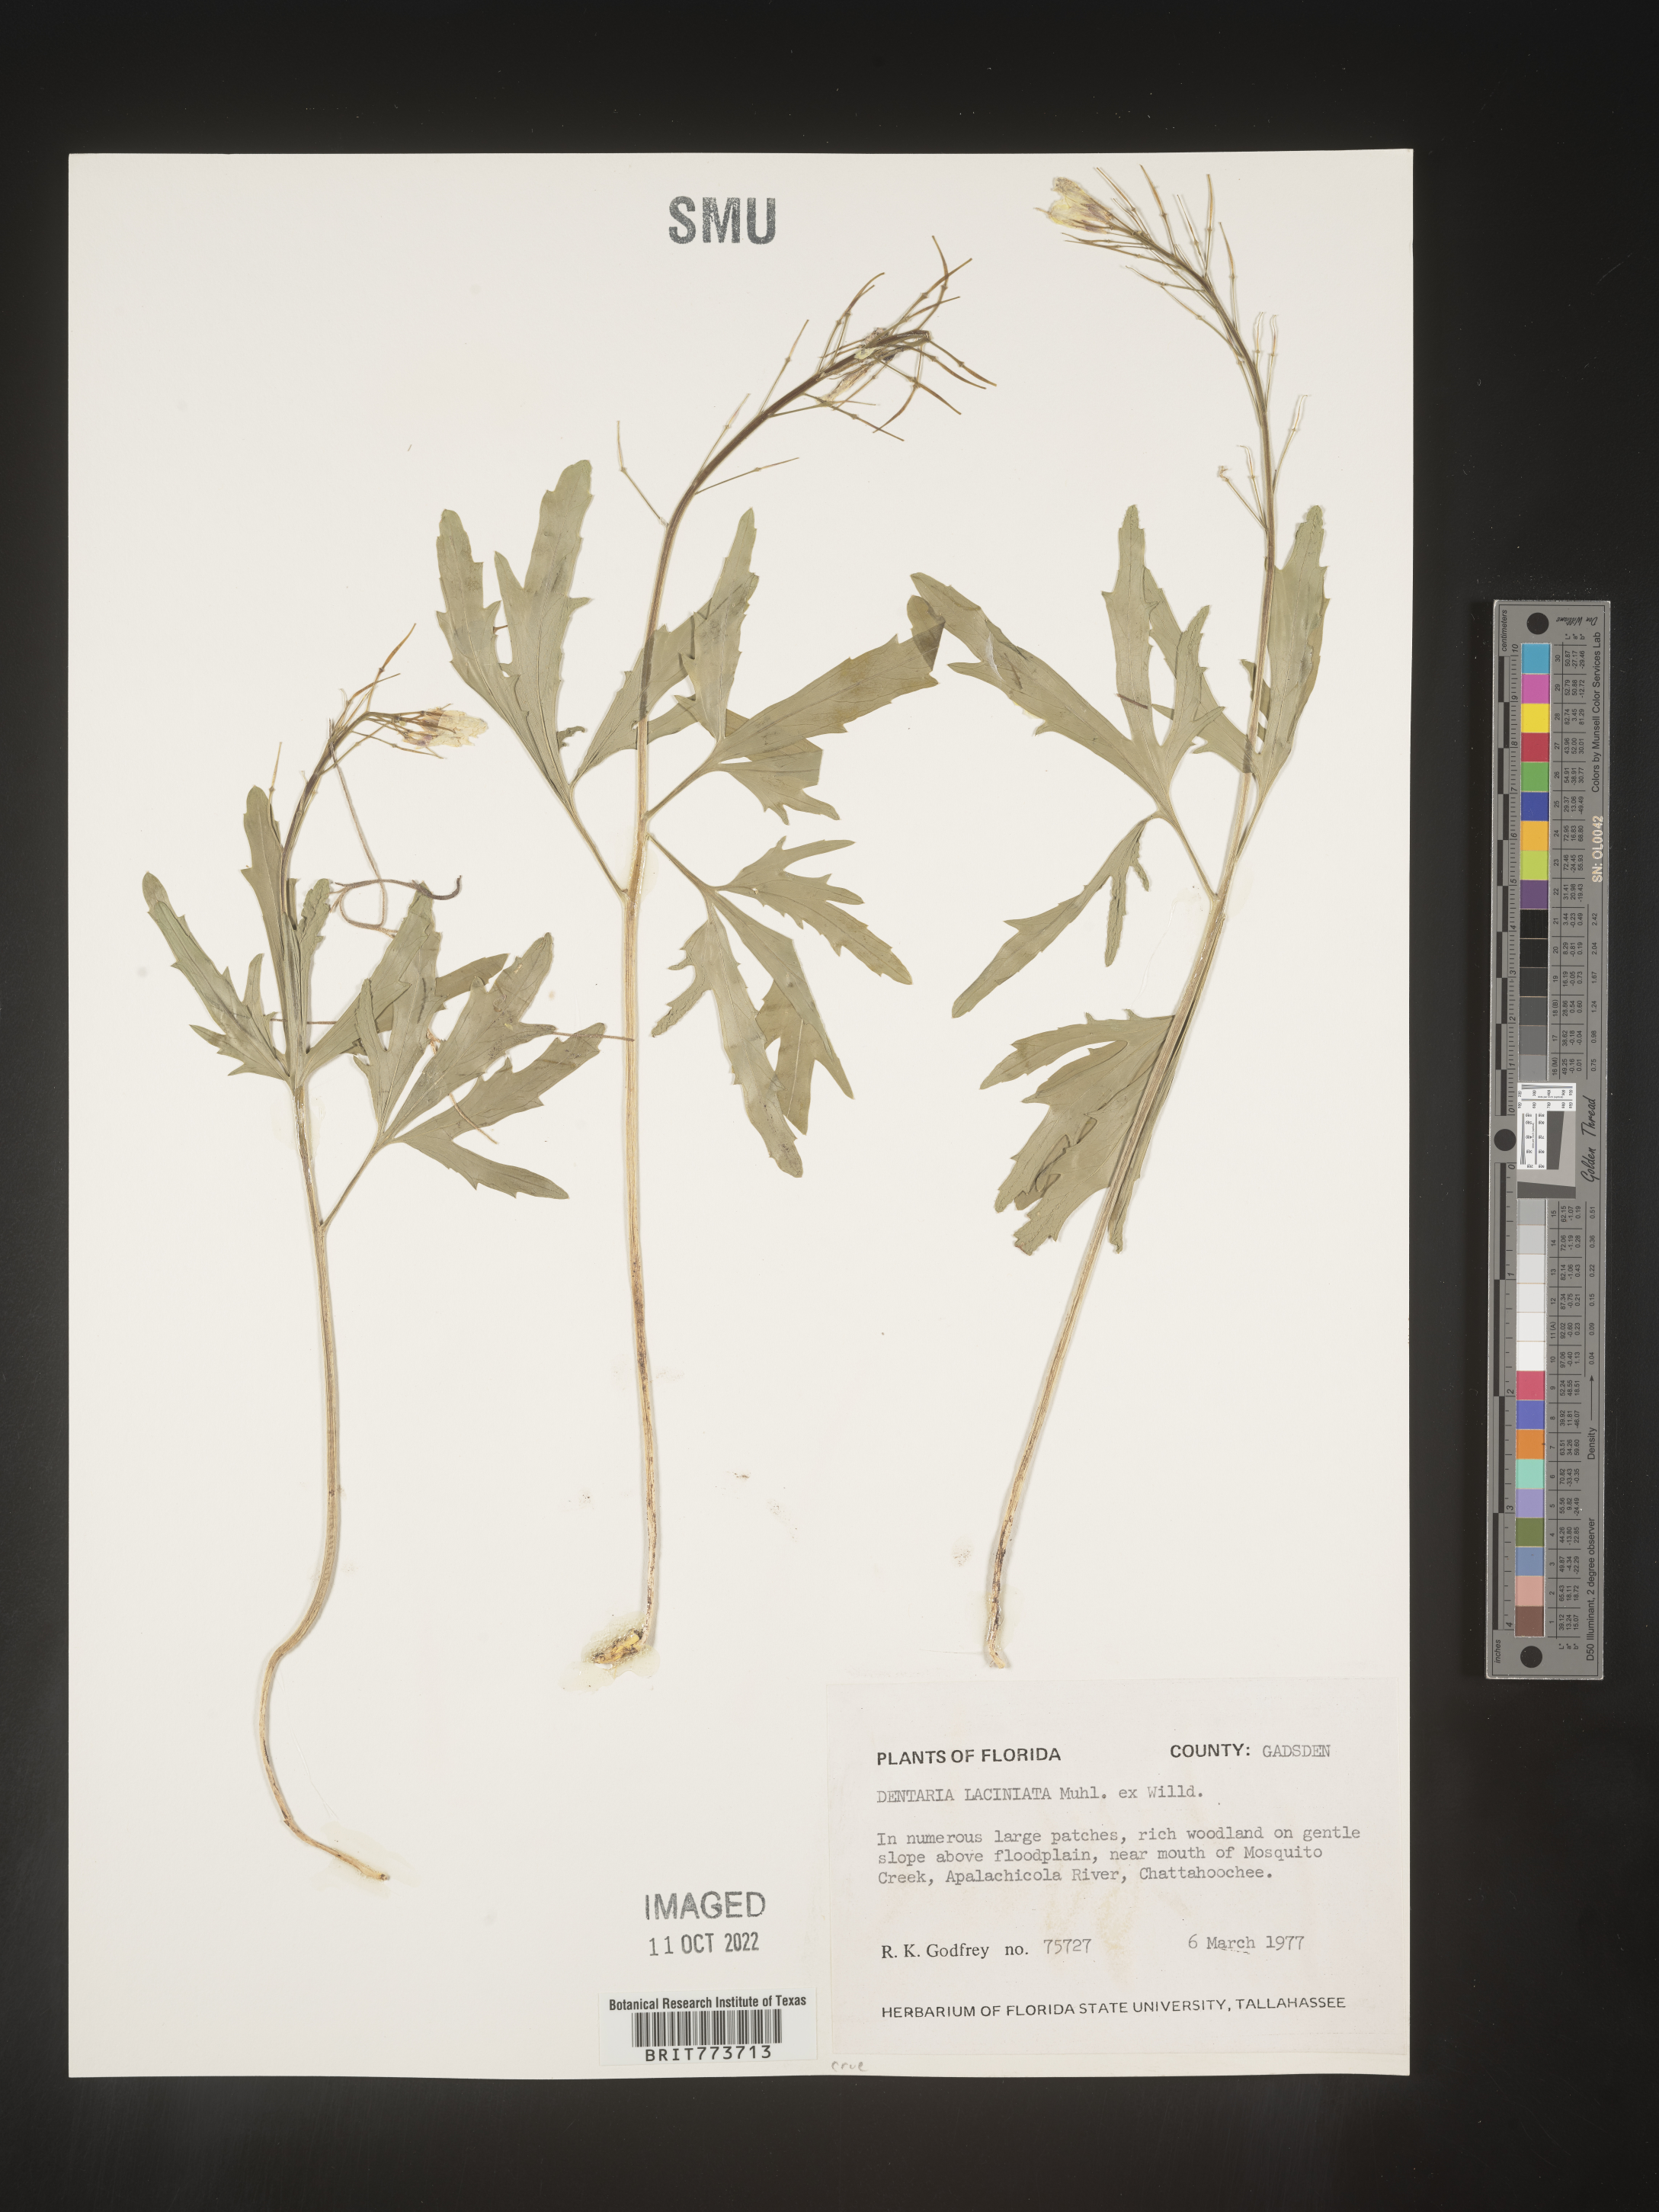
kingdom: Plantae
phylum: Tracheophyta
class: Magnoliopsida
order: Brassicales
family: Brassicaceae
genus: Rorippa
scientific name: Rorippa laciniata
